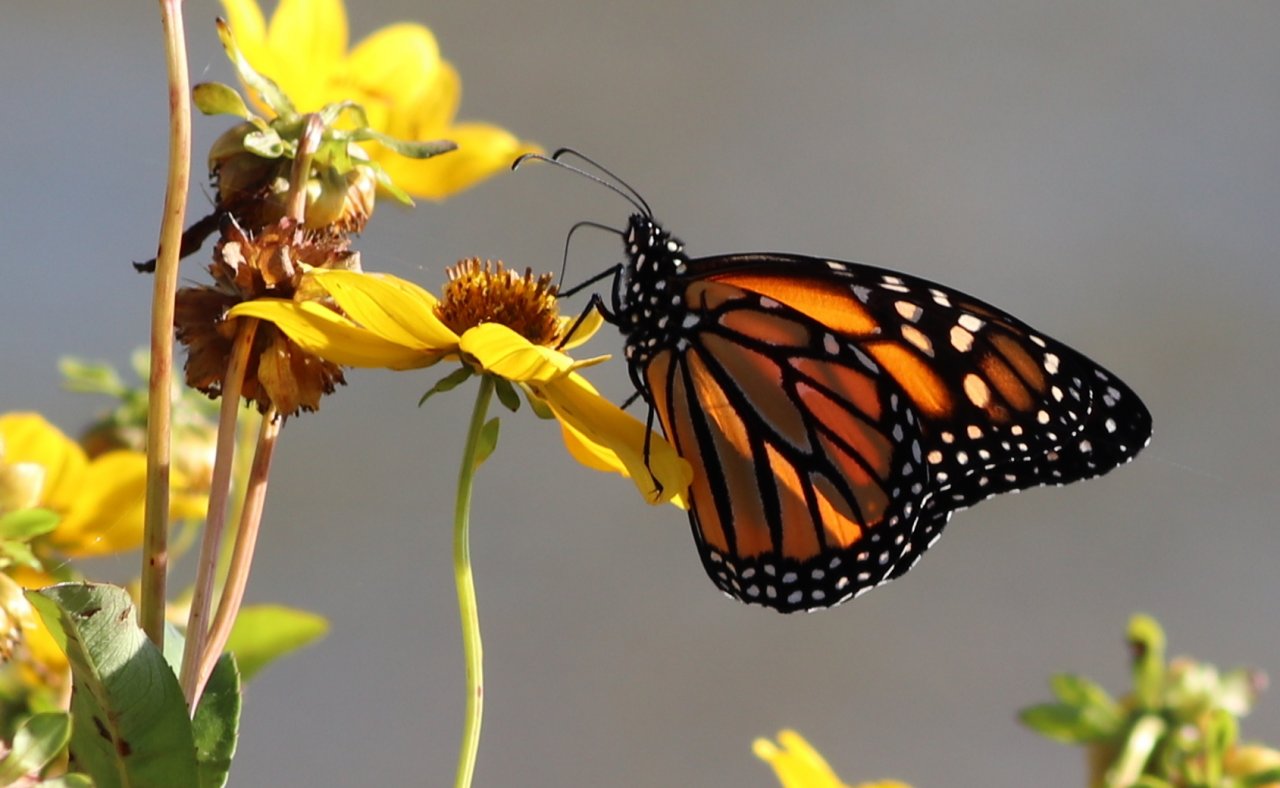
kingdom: Animalia
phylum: Arthropoda
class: Insecta
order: Lepidoptera
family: Nymphalidae
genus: Danaus
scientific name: Danaus plexippus
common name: Monarch
